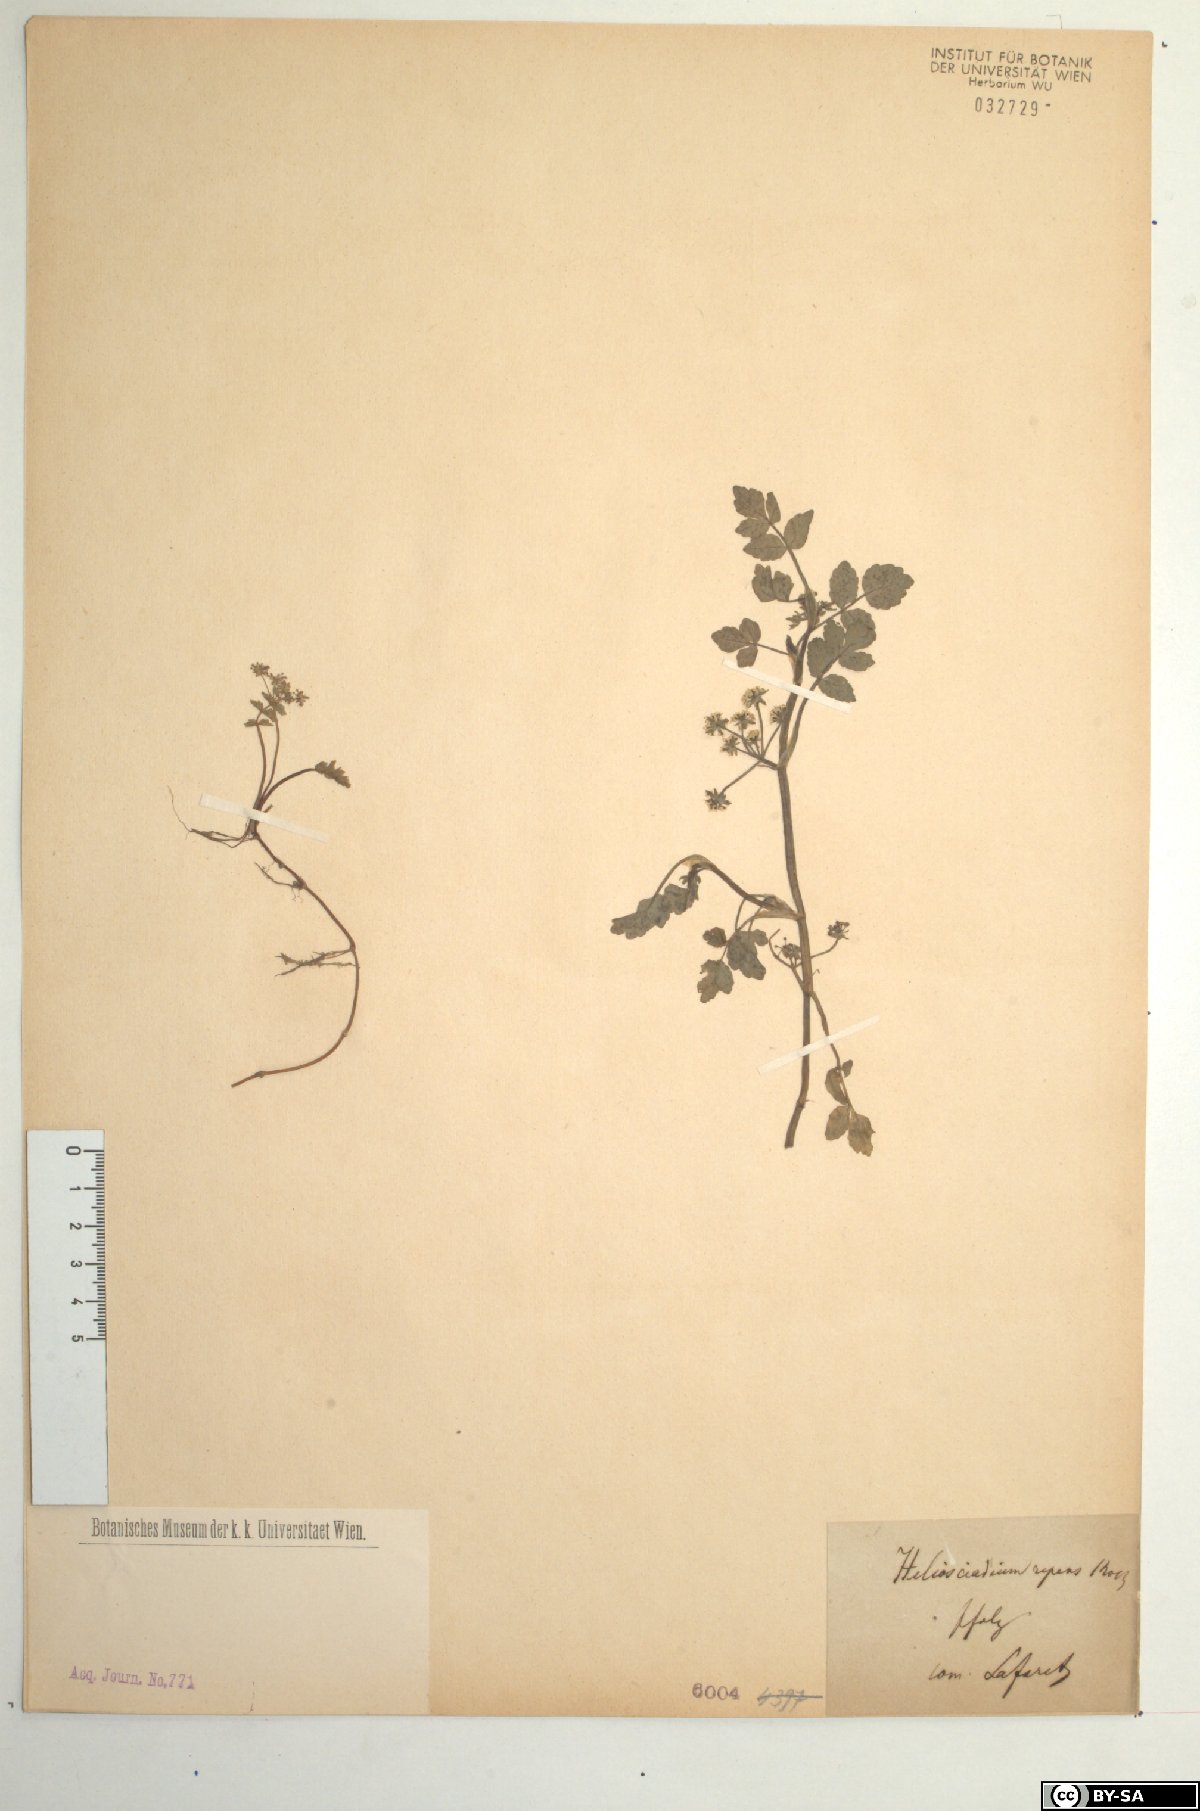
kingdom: Plantae
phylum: Tracheophyta
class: Magnoliopsida
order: Apiales
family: Apiaceae
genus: Helosciadium
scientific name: Helosciadium repens
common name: Creeping marshwort
